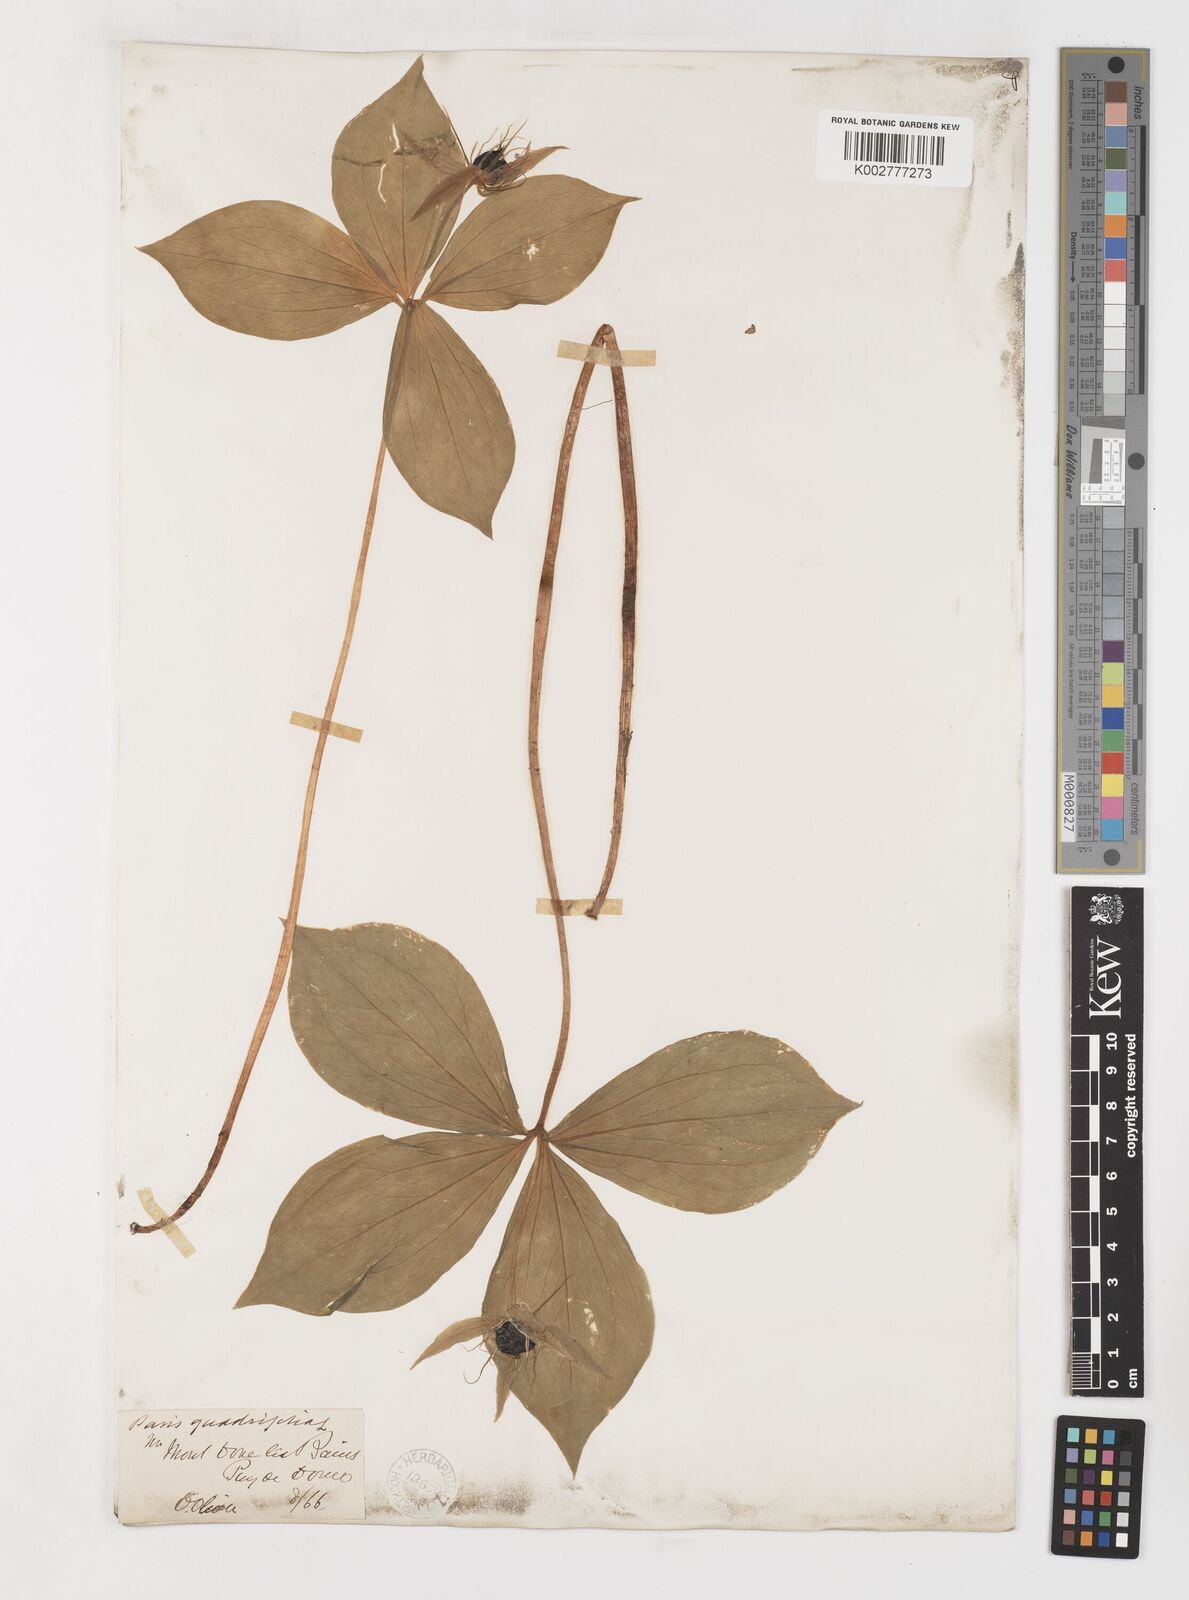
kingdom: Plantae
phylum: Tracheophyta
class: Liliopsida
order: Liliales
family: Melanthiaceae
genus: Paris
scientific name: Paris quadrifolia
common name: Herb-paris
